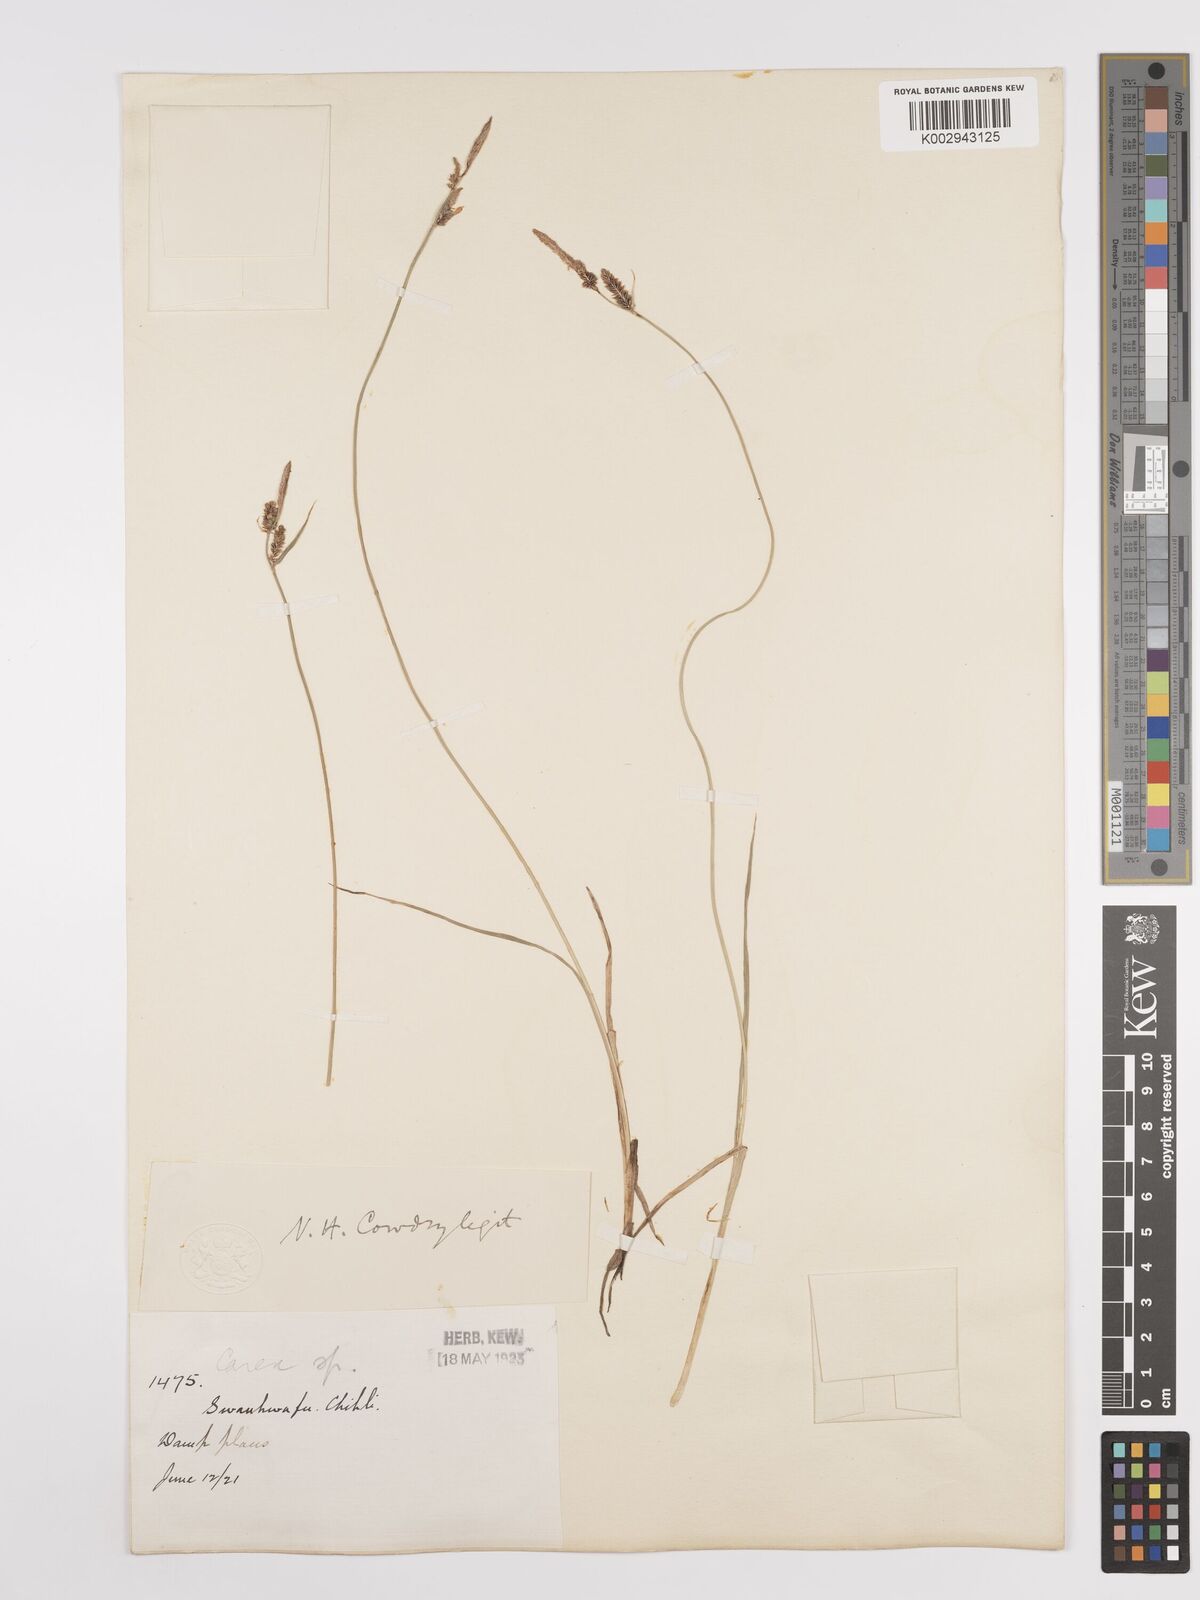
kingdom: Plantae
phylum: Tracheophyta
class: Liliopsida
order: Poales
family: Cyperaceae
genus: Carex
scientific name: Carex
